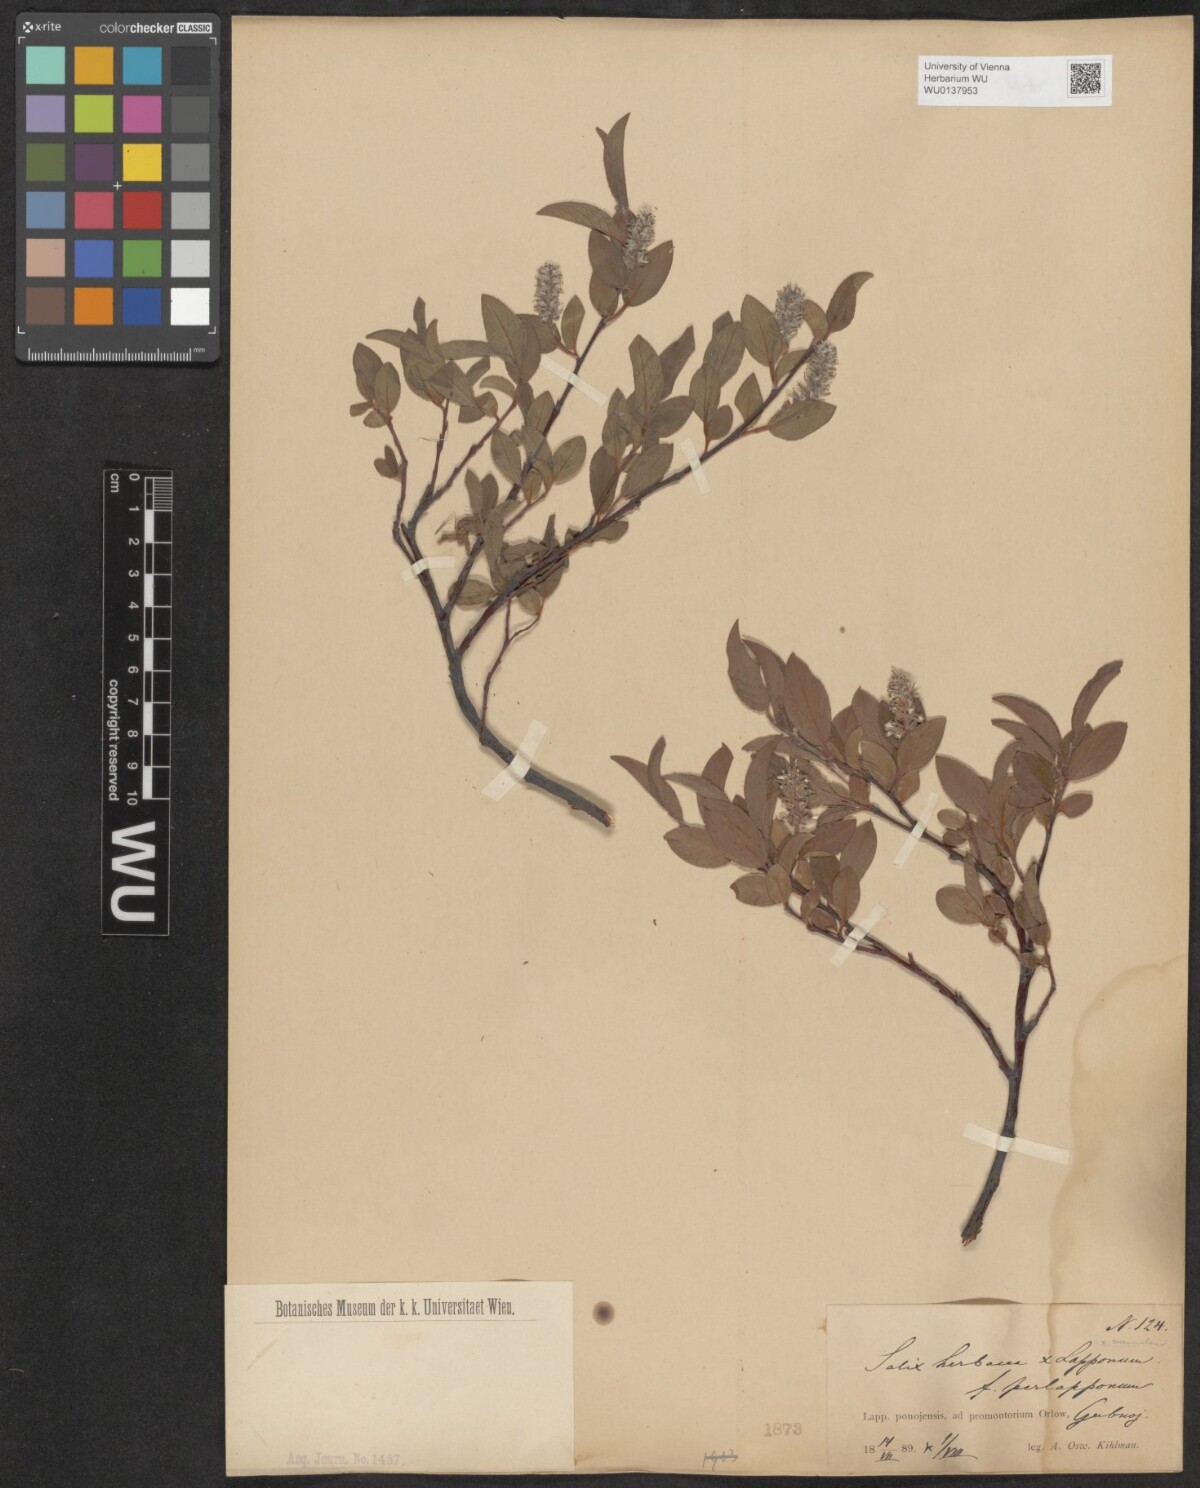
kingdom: Plantae
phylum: Tracheophyta
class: Magnoliopsida
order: Malpighiales
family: Salicaceae
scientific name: Salicaceae
